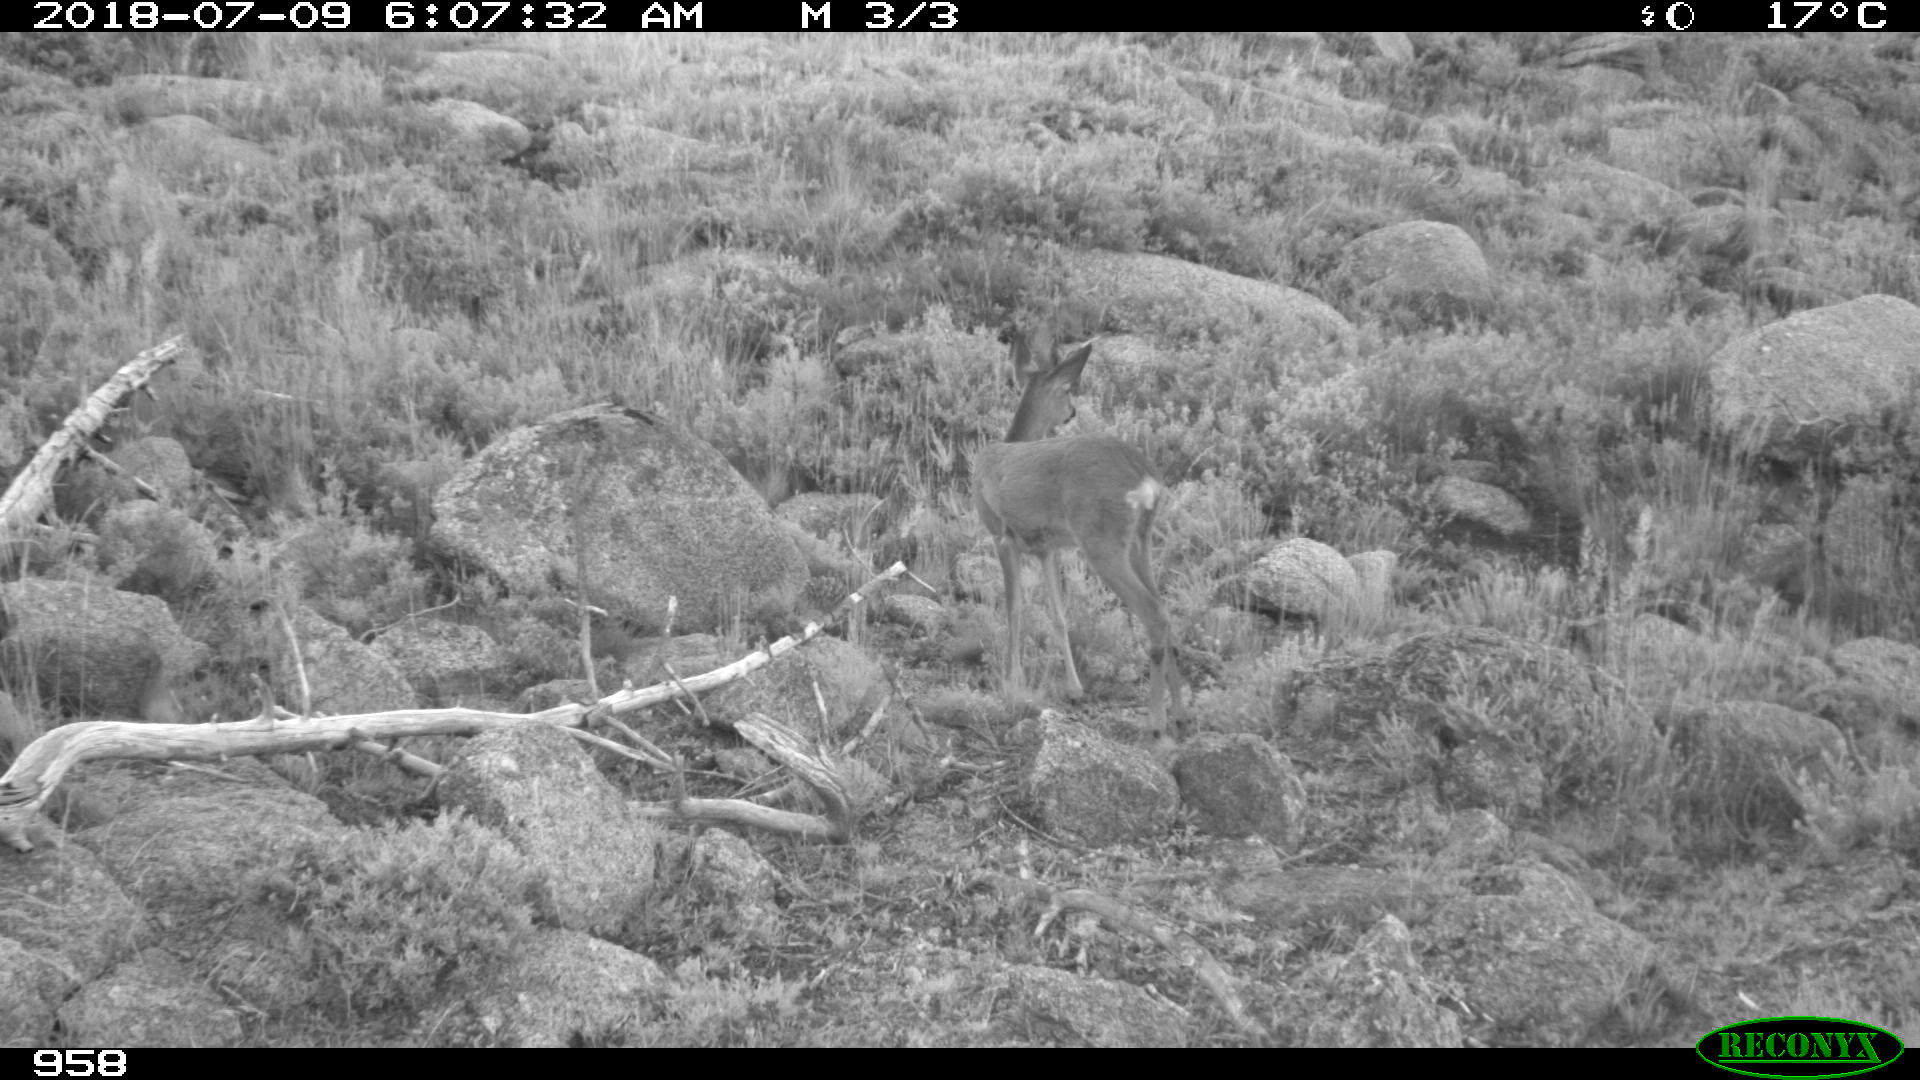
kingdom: Animalia
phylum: Chordata
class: Mammalia
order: Artiodactyla
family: Cervidae
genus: Capreolus
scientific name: Capreolus capreolus
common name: Western roe deer
